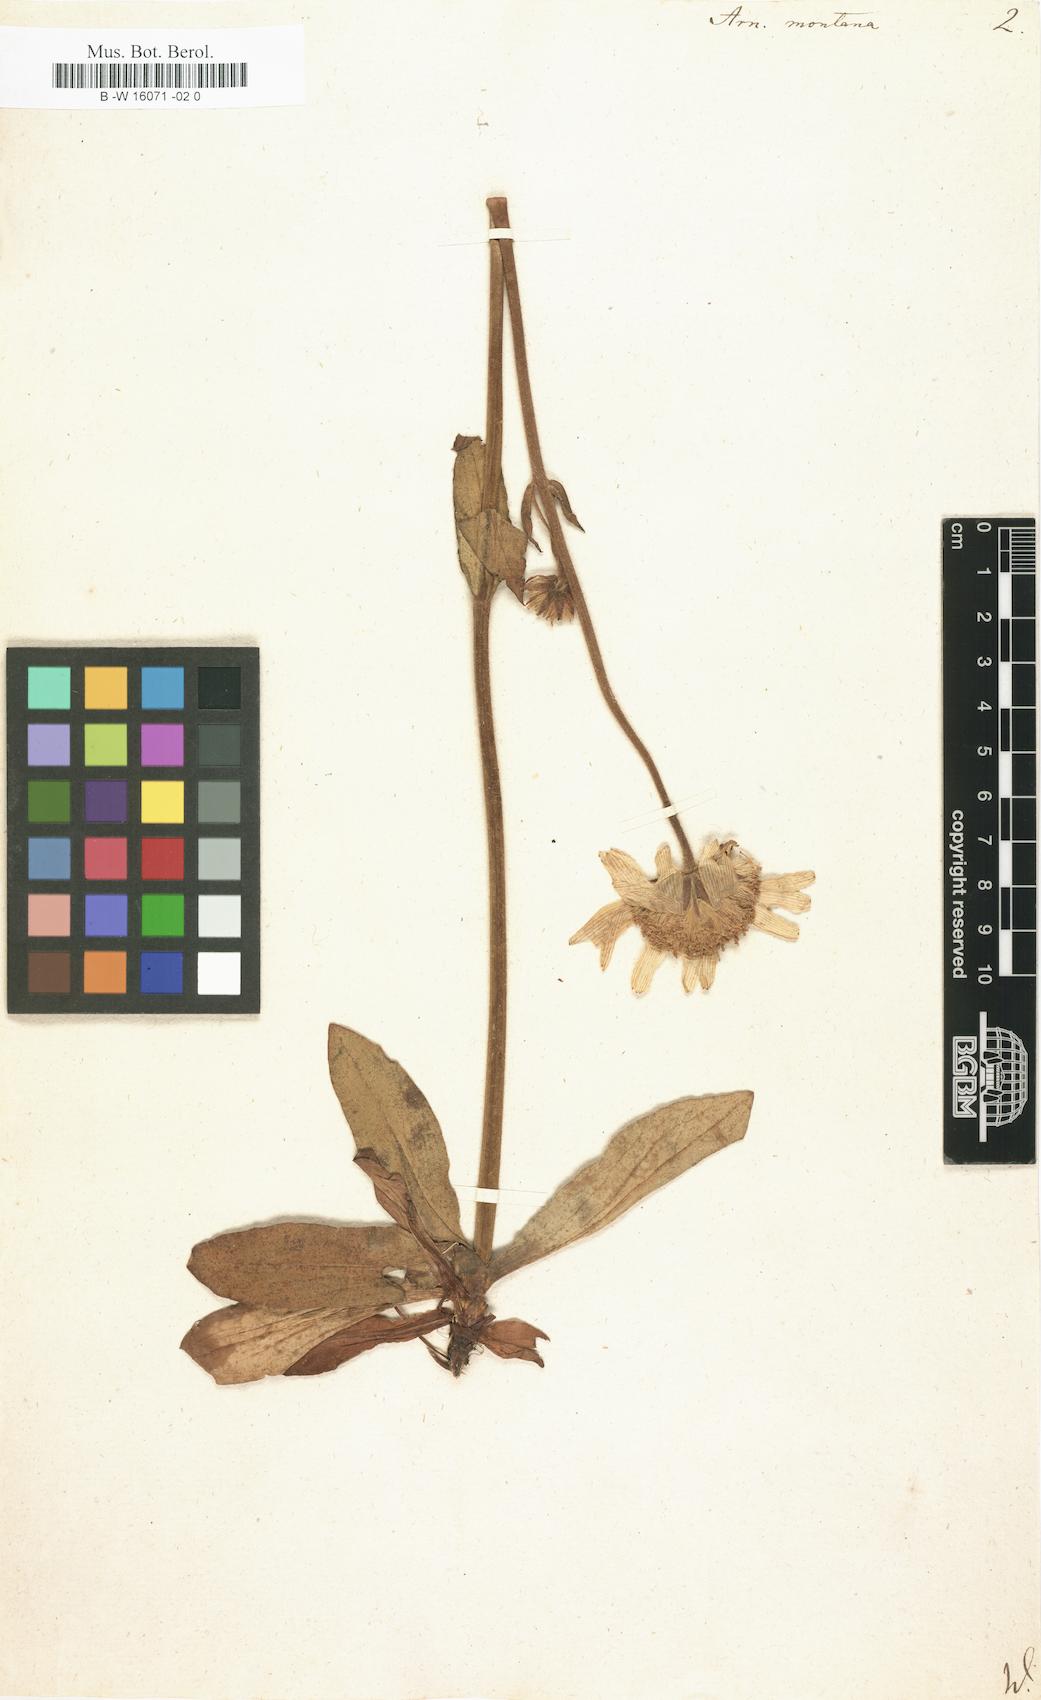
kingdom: Plantae
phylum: Tracheophyta
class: Magnoliopsida
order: Asterales
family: Asteraceae
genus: Arnica
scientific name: Arnica montana
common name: Leopard's bane
